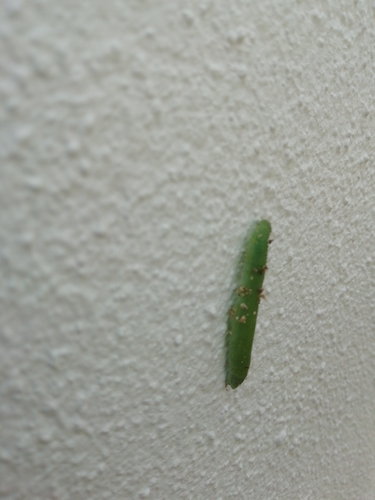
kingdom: Animalia
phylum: Arthropoda
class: Insecta
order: Lepidoptera
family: Pieridae
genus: Pieris
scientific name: Pieris rapae
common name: Small white
